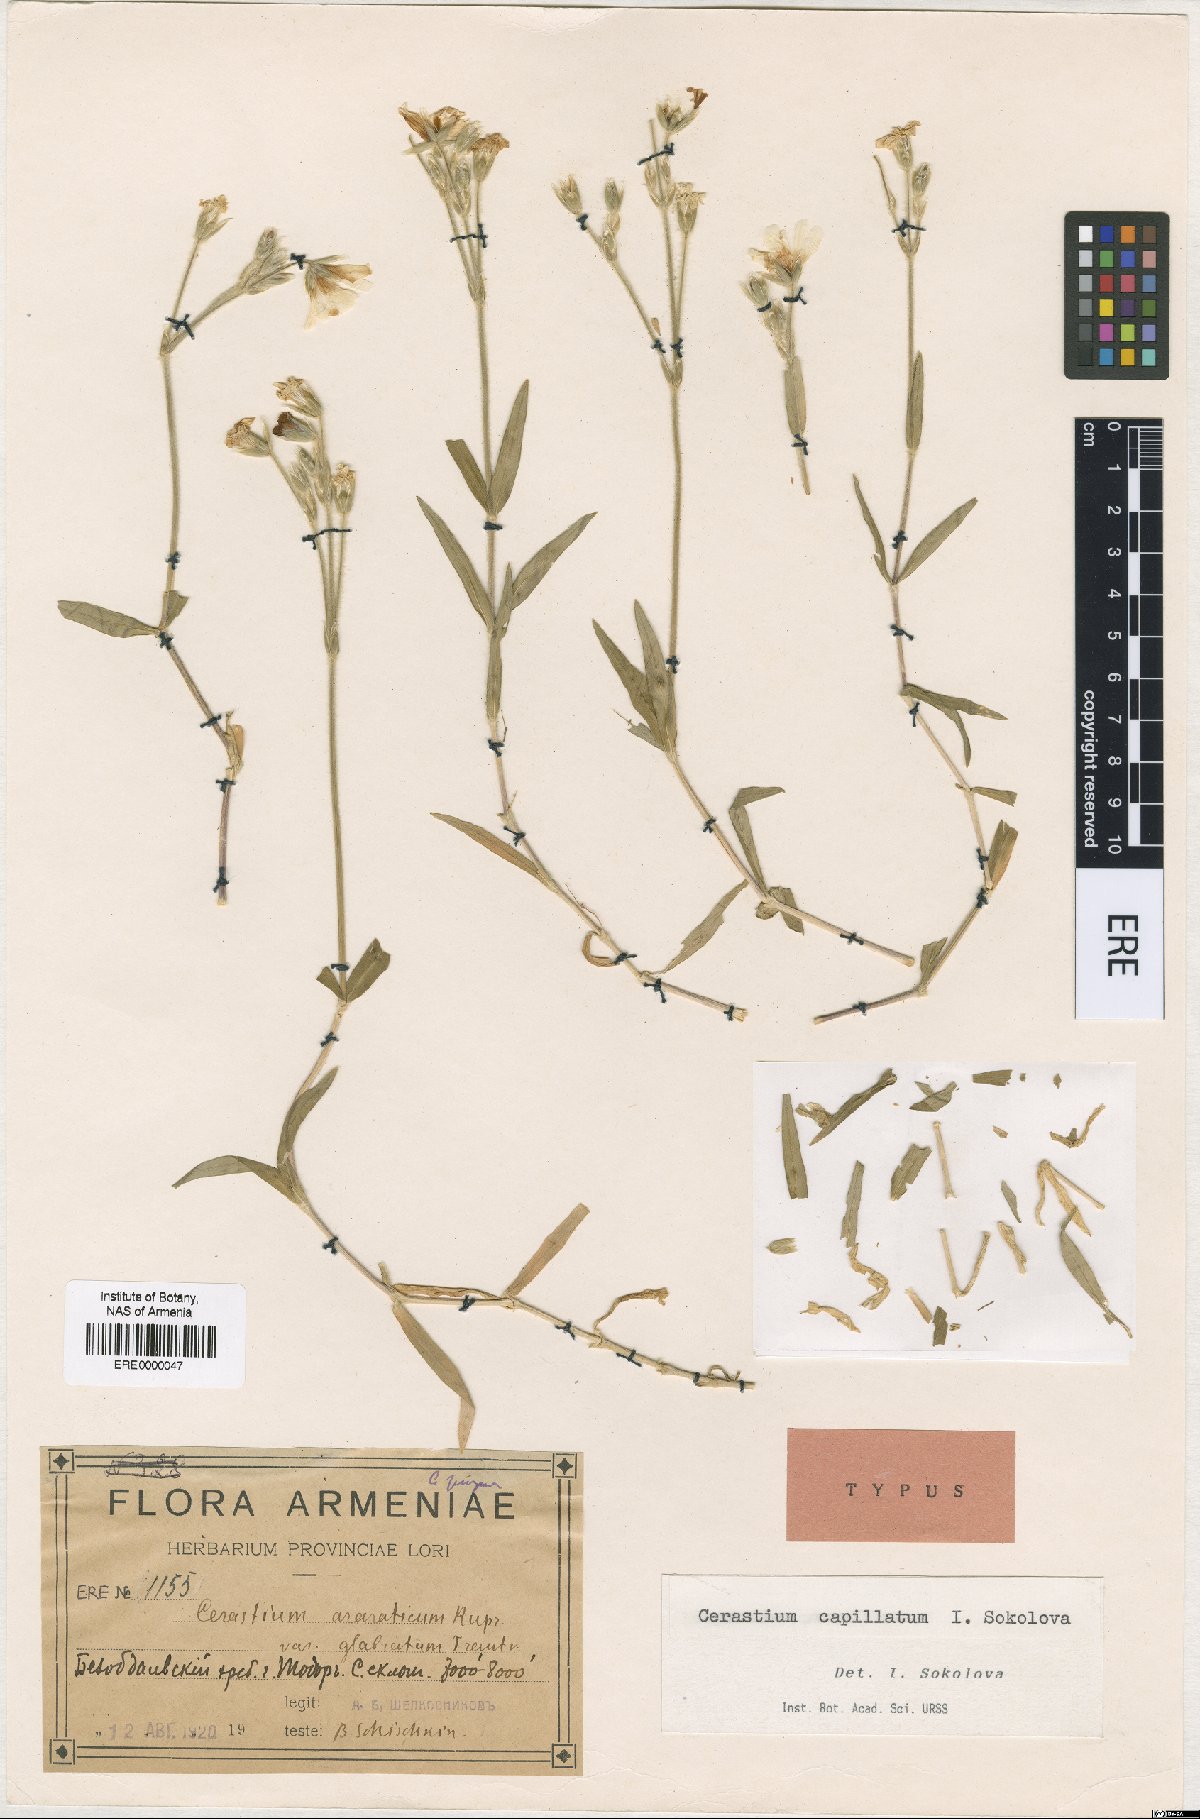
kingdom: Plantae
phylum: Tracheophyta
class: Magnoliopsida
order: Caryophyllales
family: Caryophyllaceae
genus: Cerastium
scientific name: Cerastium capillatum
